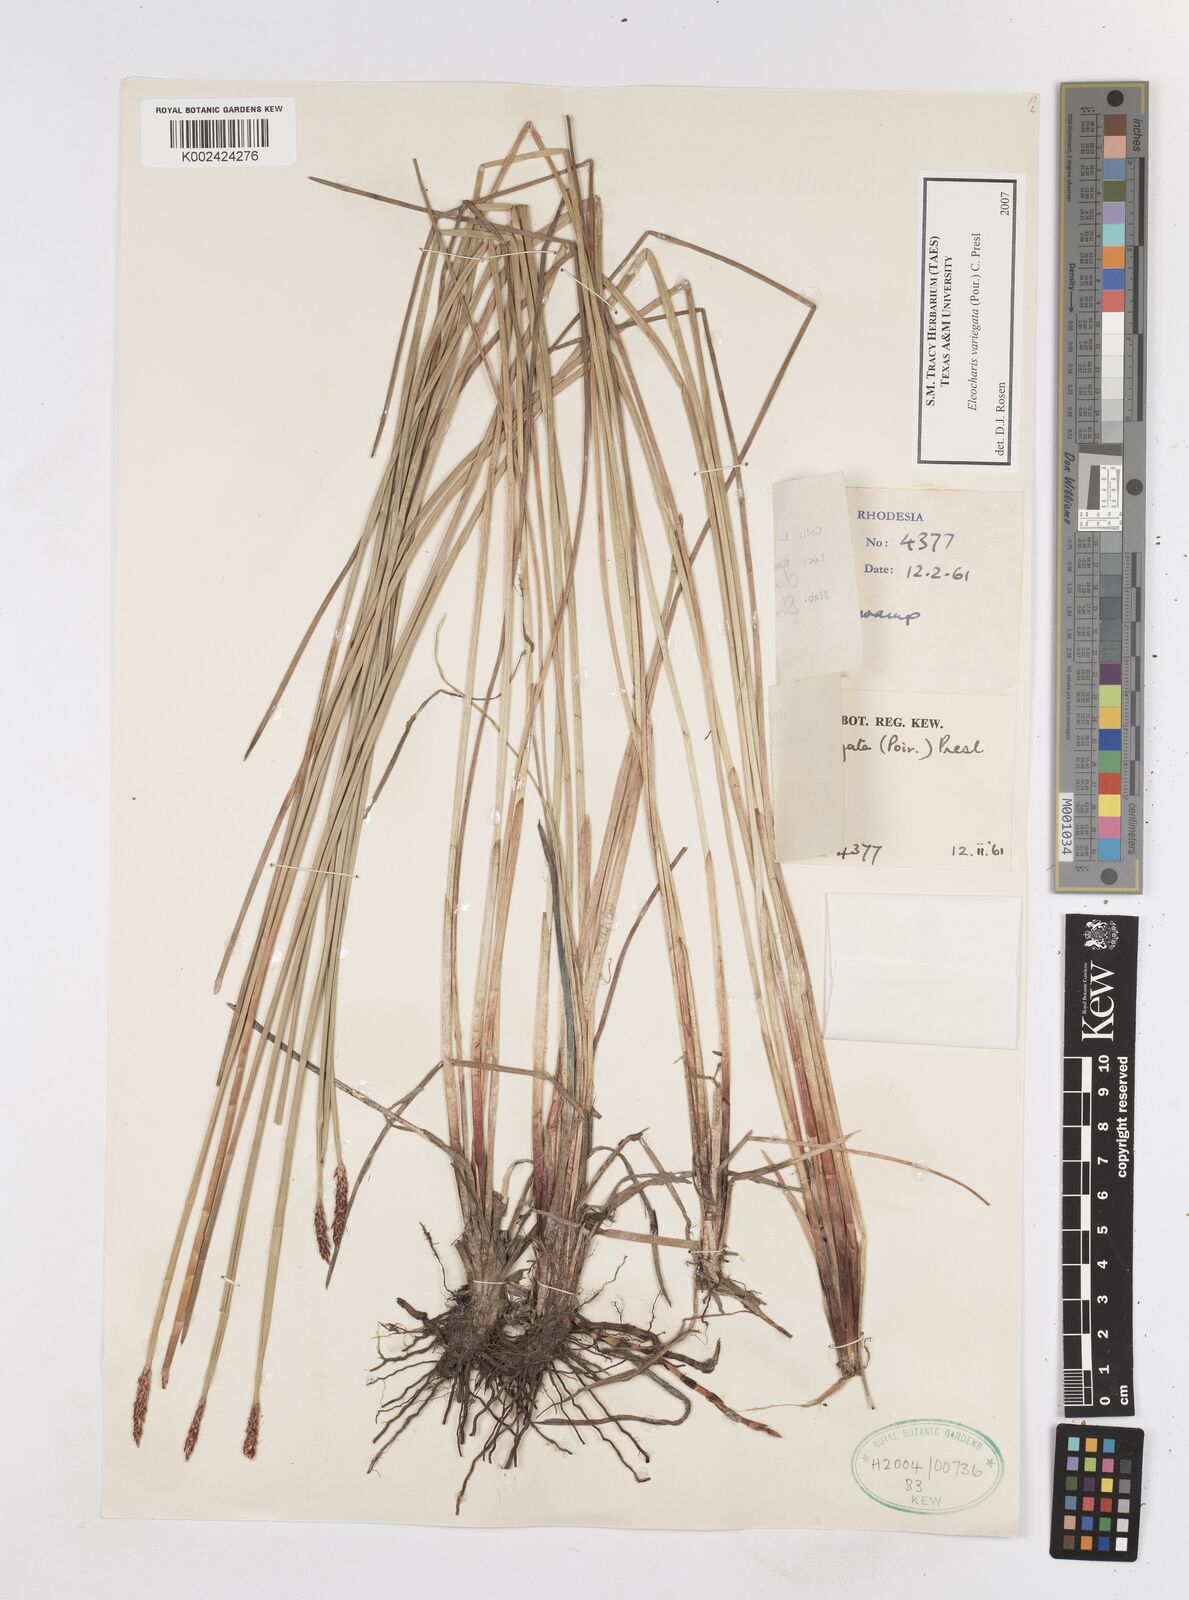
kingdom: Plantae
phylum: Tracheophyta
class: Liliopsida
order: Poales
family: Cyperaceae
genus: Eleocharis
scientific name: Eleocharis variegata
